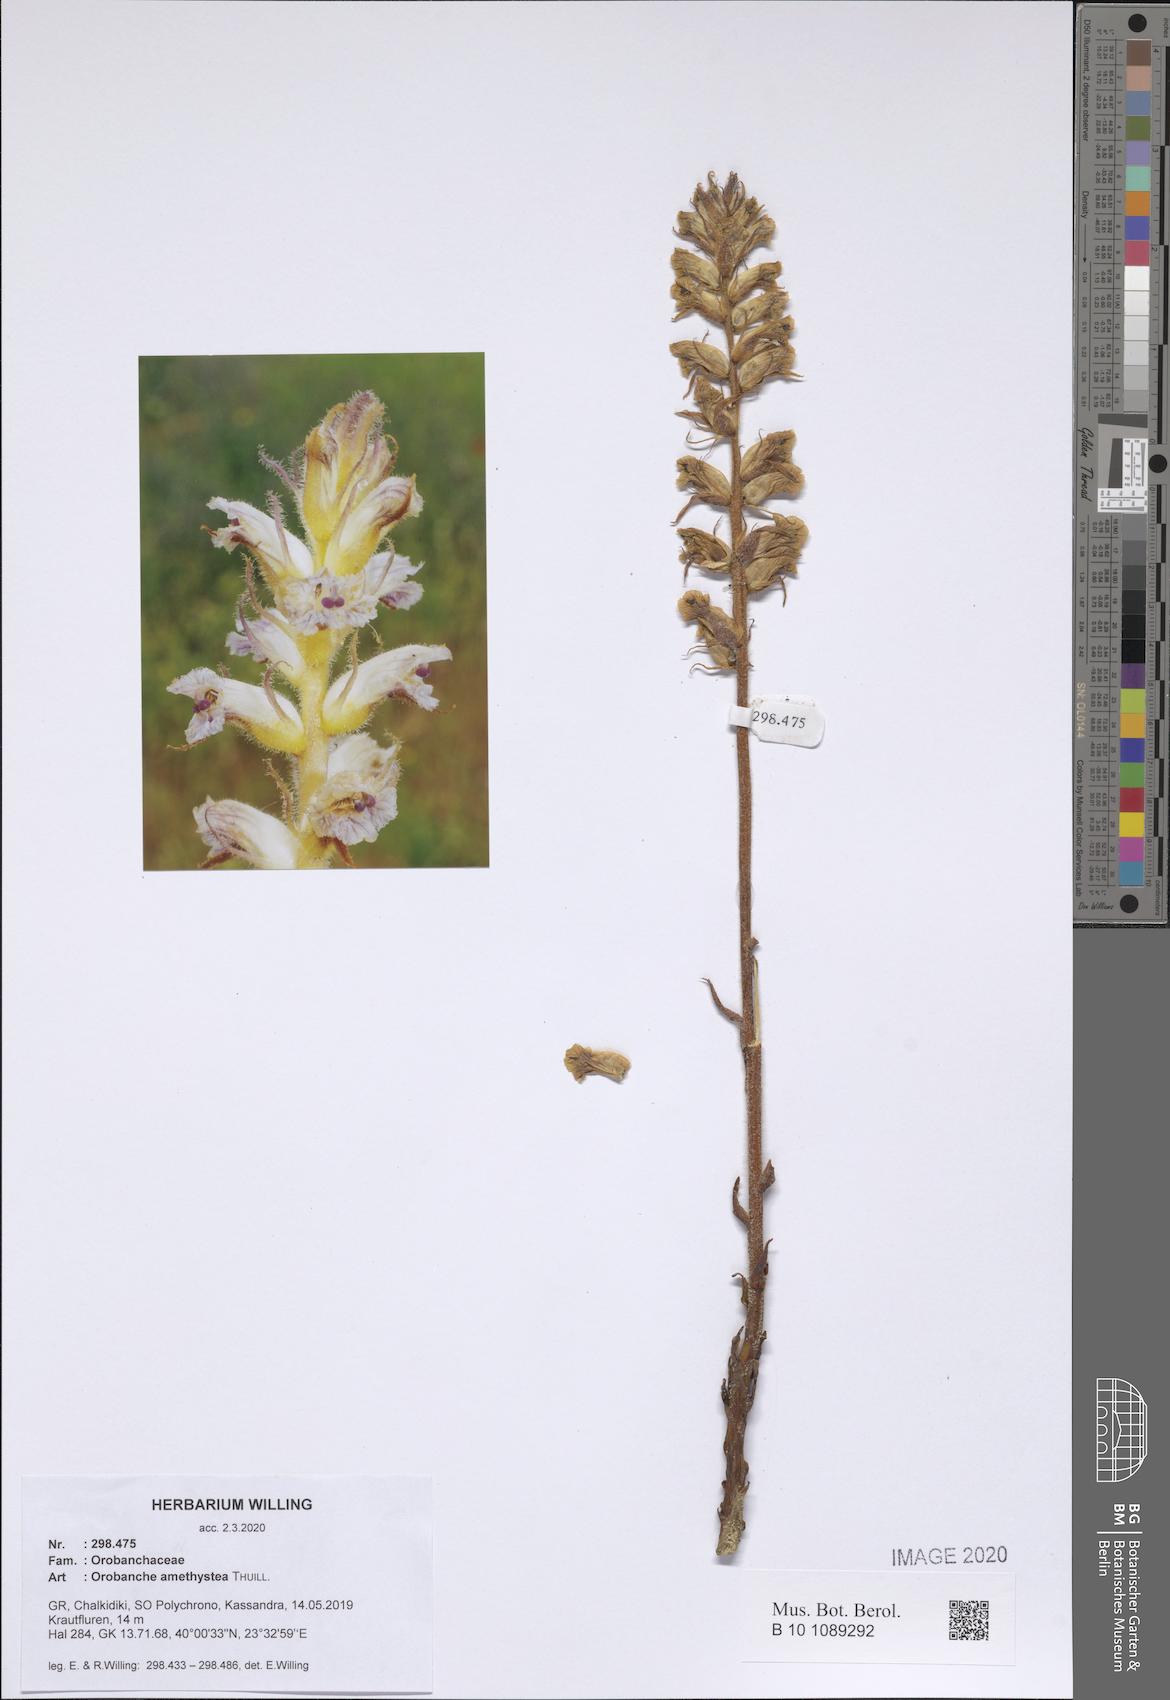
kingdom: Plantae
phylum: Tracheophyta
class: Magnoliopsida
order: Lamiales
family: Orobanchaceae
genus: Orobanche
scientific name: Orobanche amethystea
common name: Amethyst broomrape
